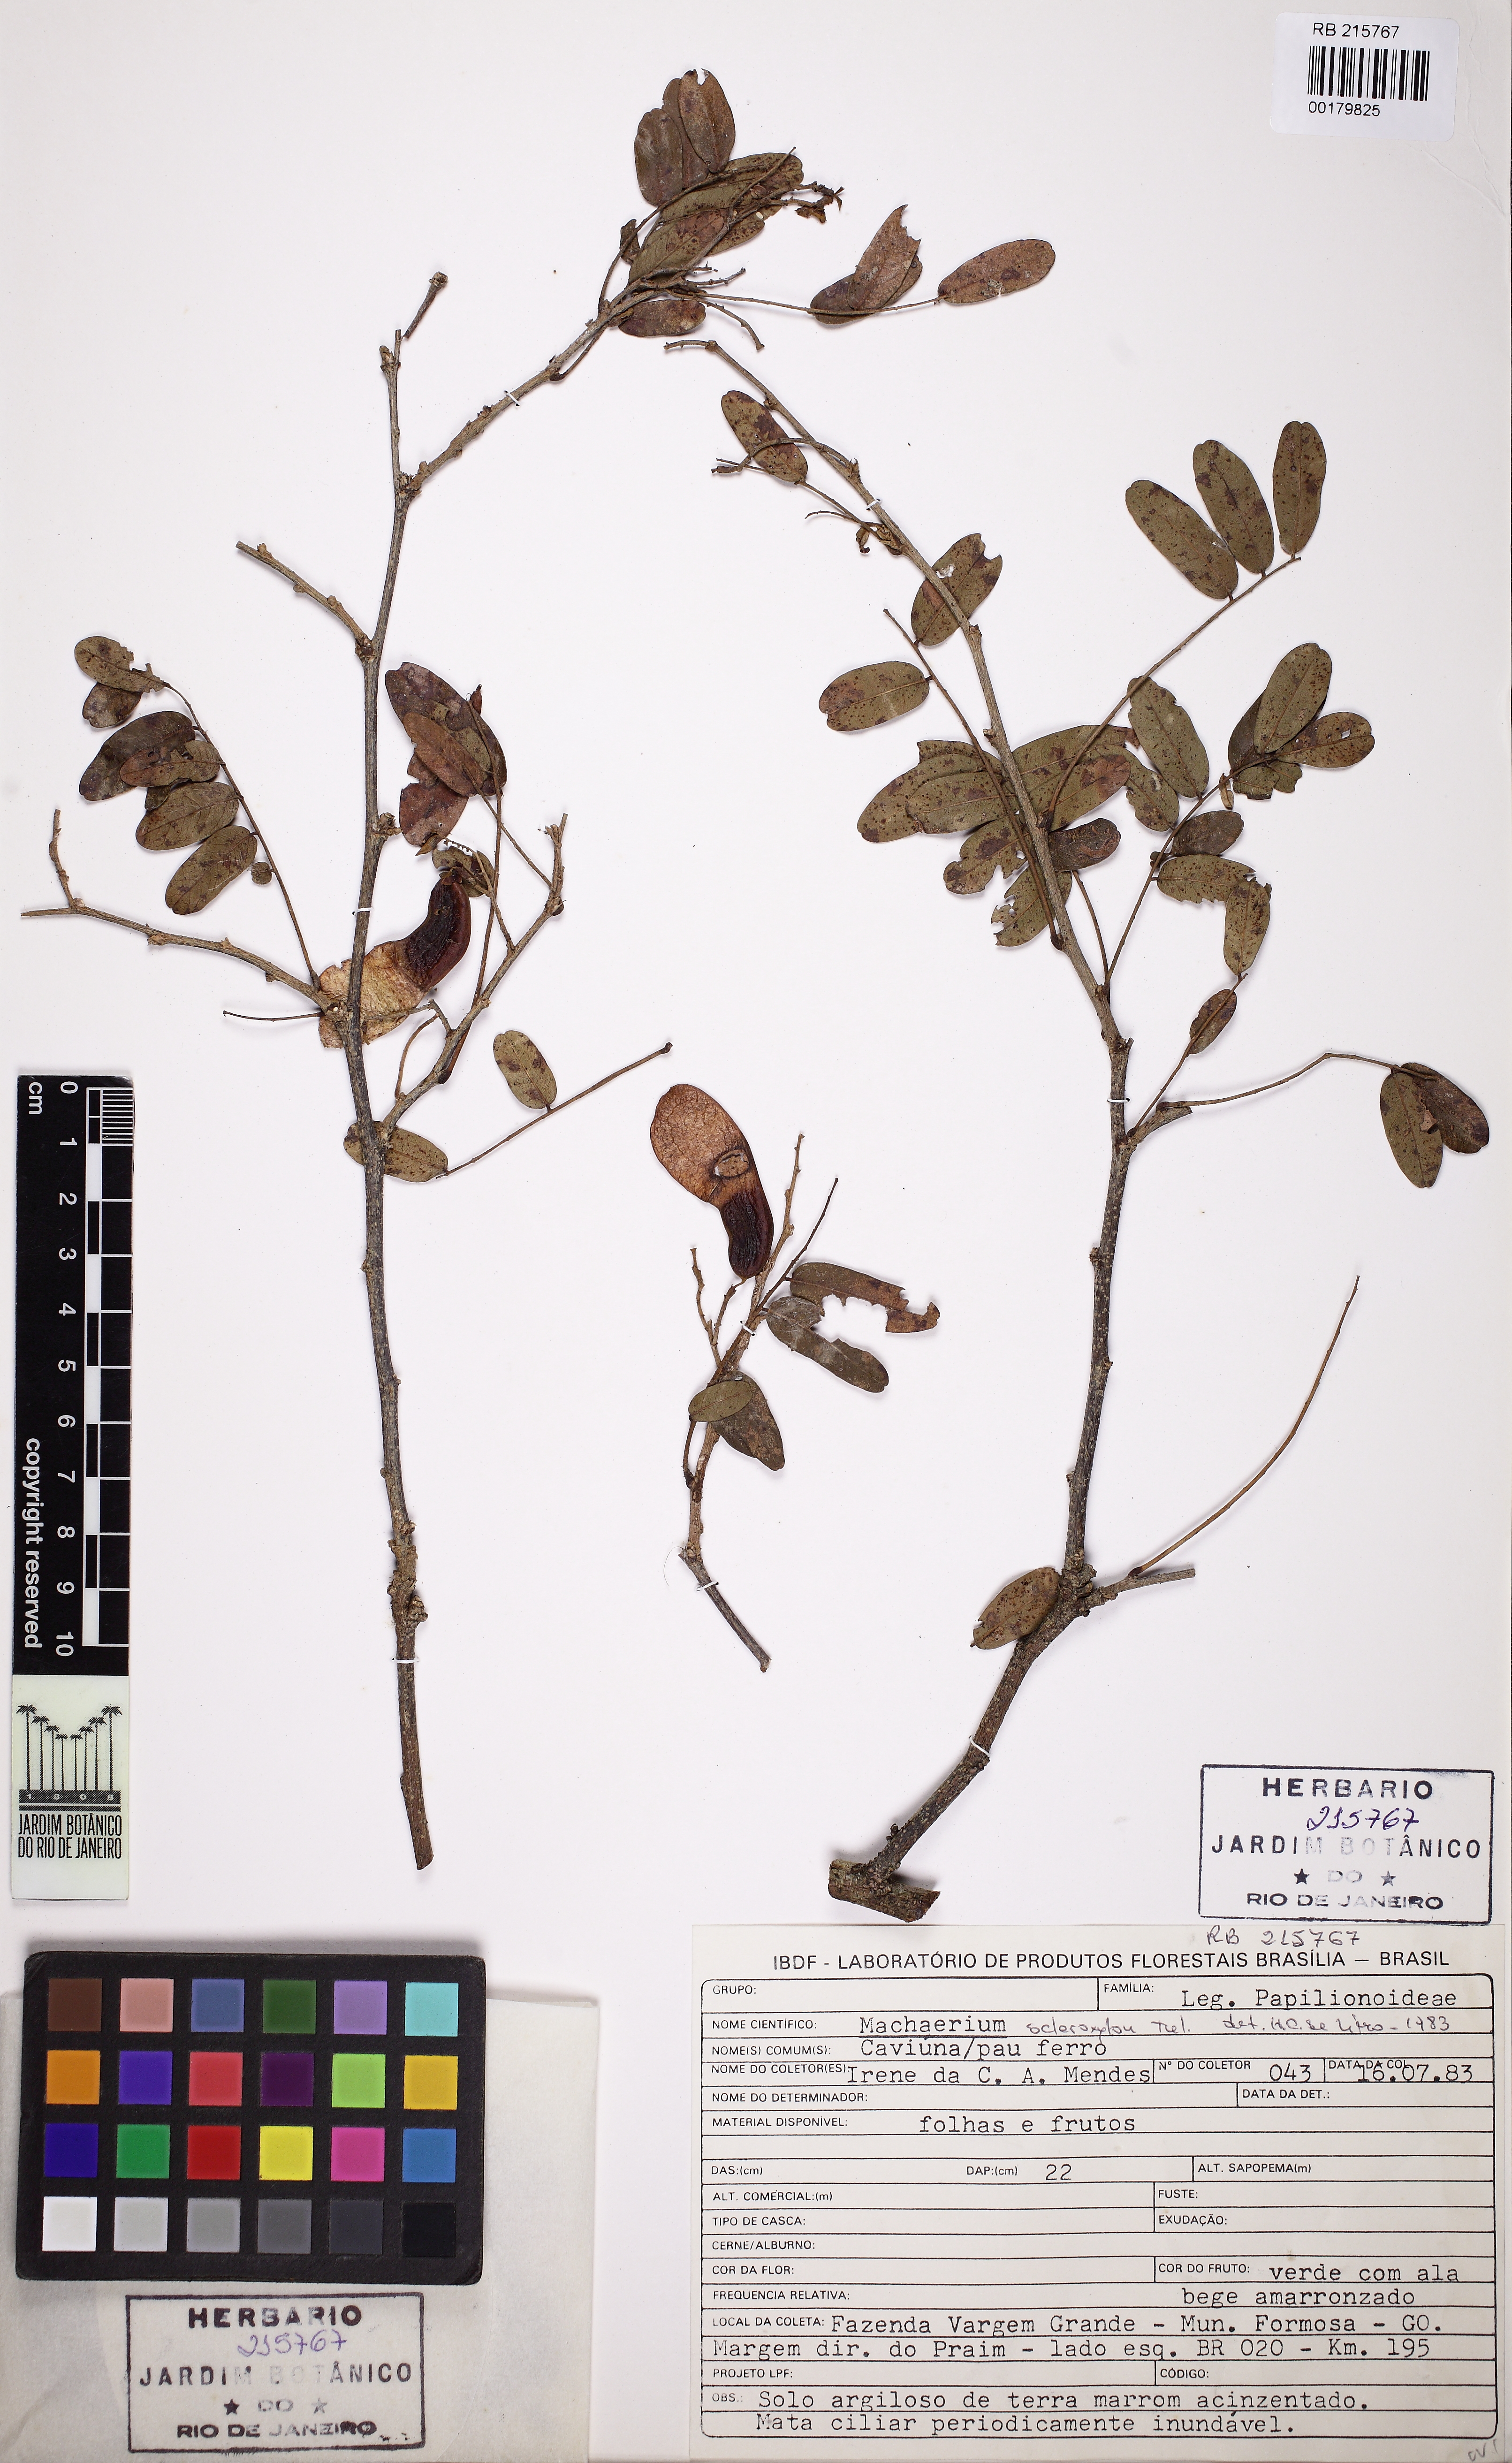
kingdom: Plantae
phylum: Tracheophyta
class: Magnoliopsida
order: Fabales
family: Fabaceae
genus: Machaerium
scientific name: Machaerium scleroxylon
